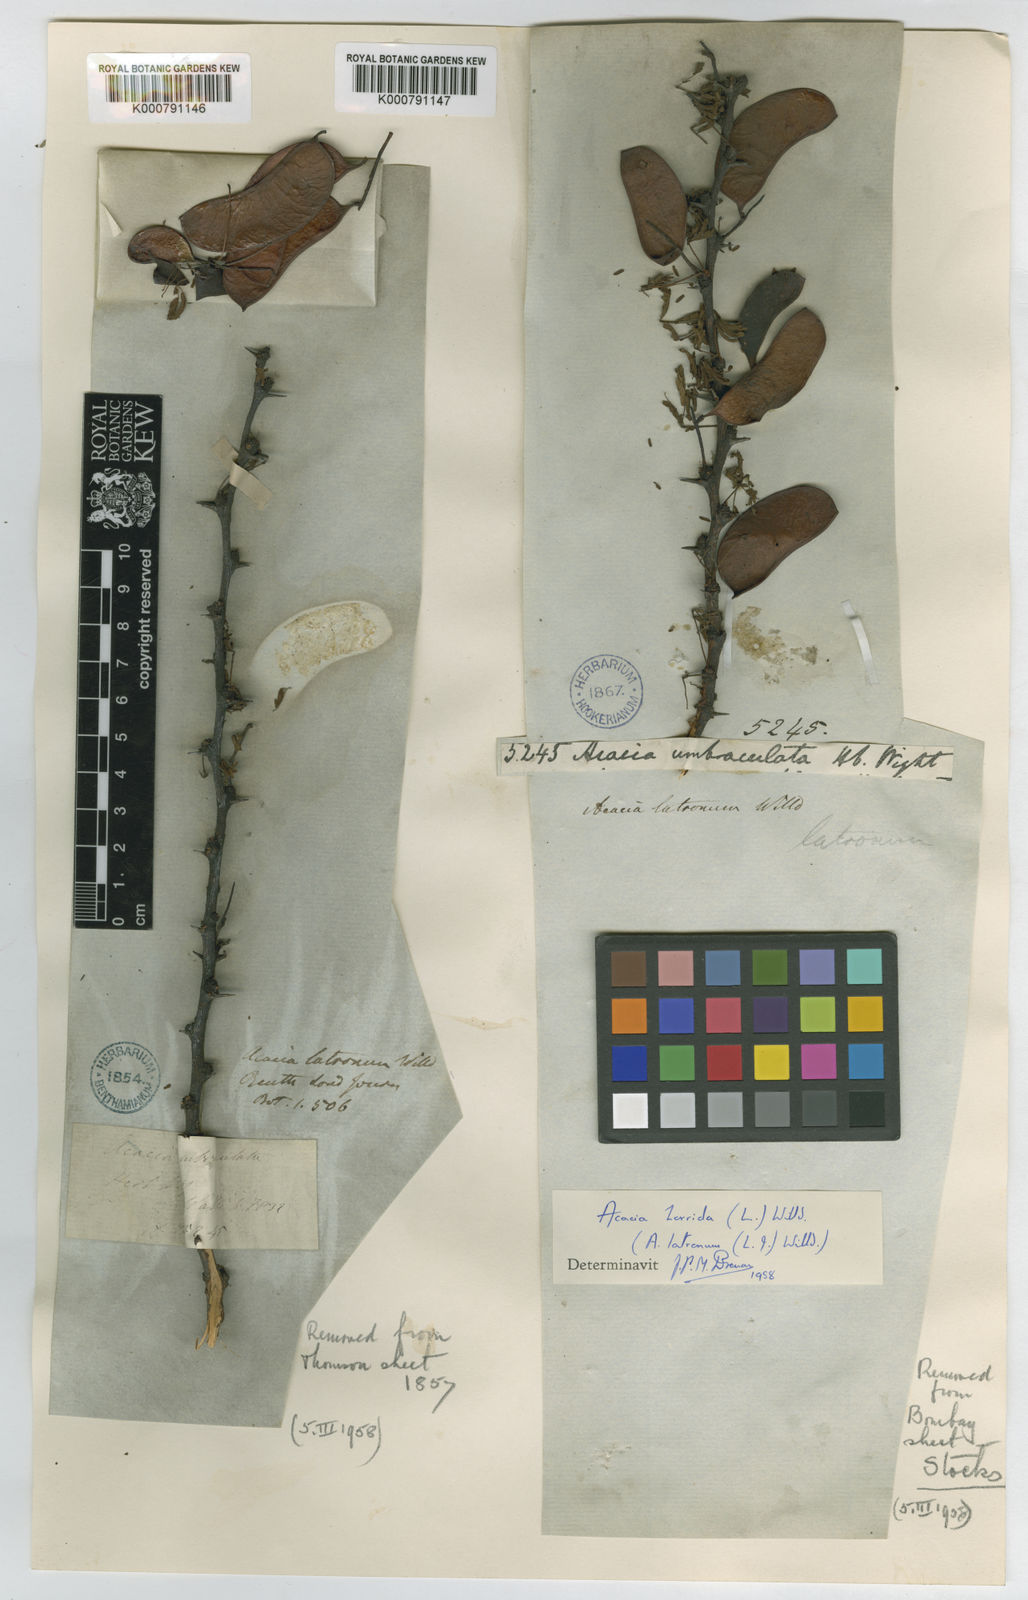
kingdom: Plantae
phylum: Tracheophyta
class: Magnoliopsida
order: Fabales
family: Fabaceae
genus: Vachellia
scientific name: Vachellia horrida
